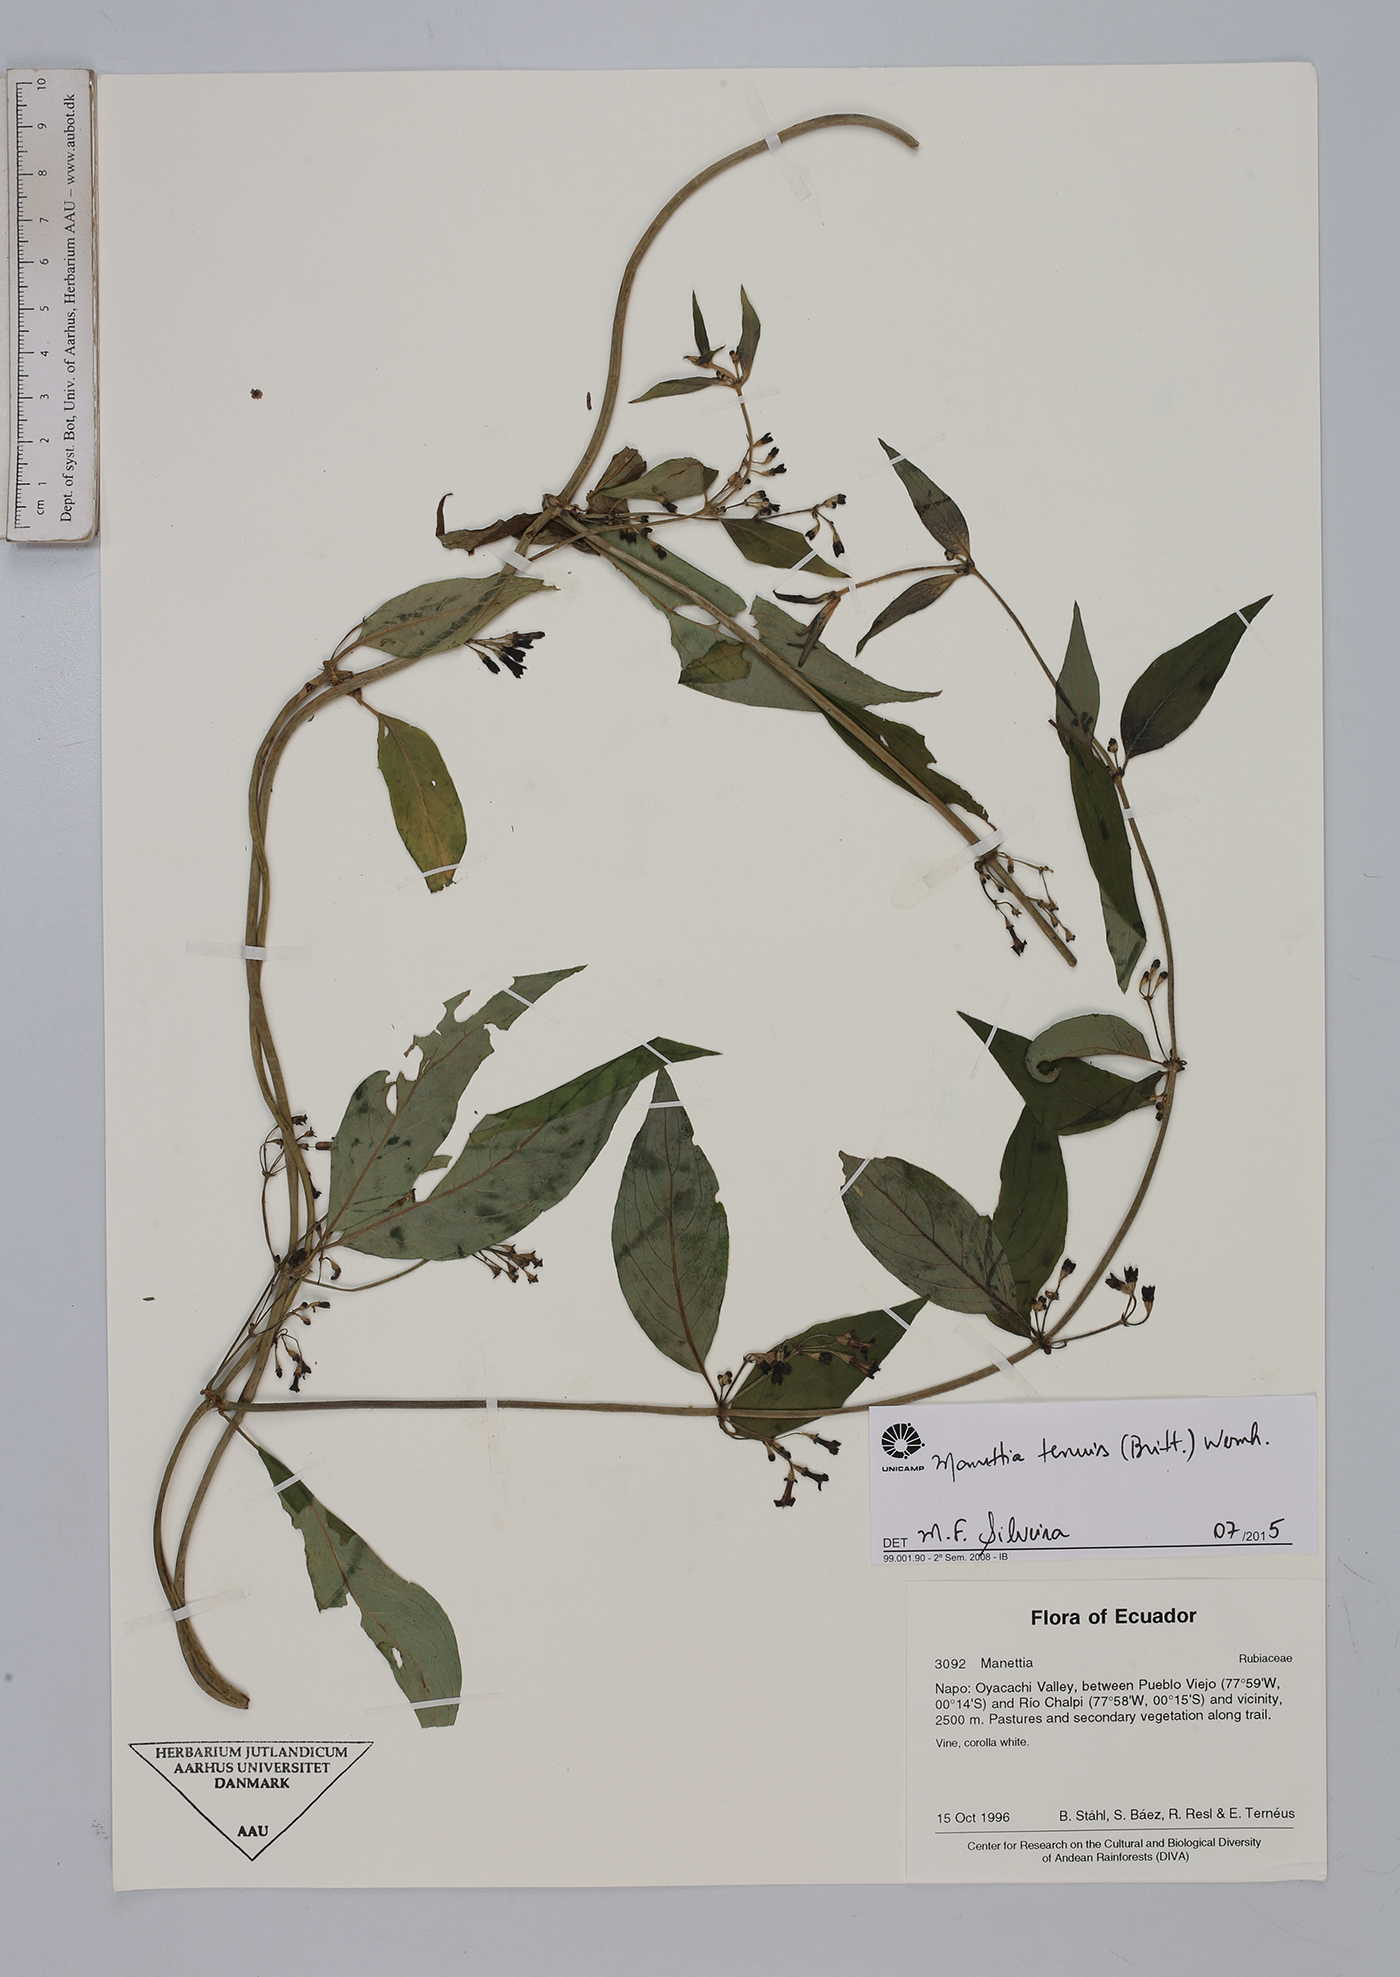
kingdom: Plantae
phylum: Tracheophyta
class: Magnoliopsida
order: Gentianales
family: Rubiaceae
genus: Manettia
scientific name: Manettia tenuis
